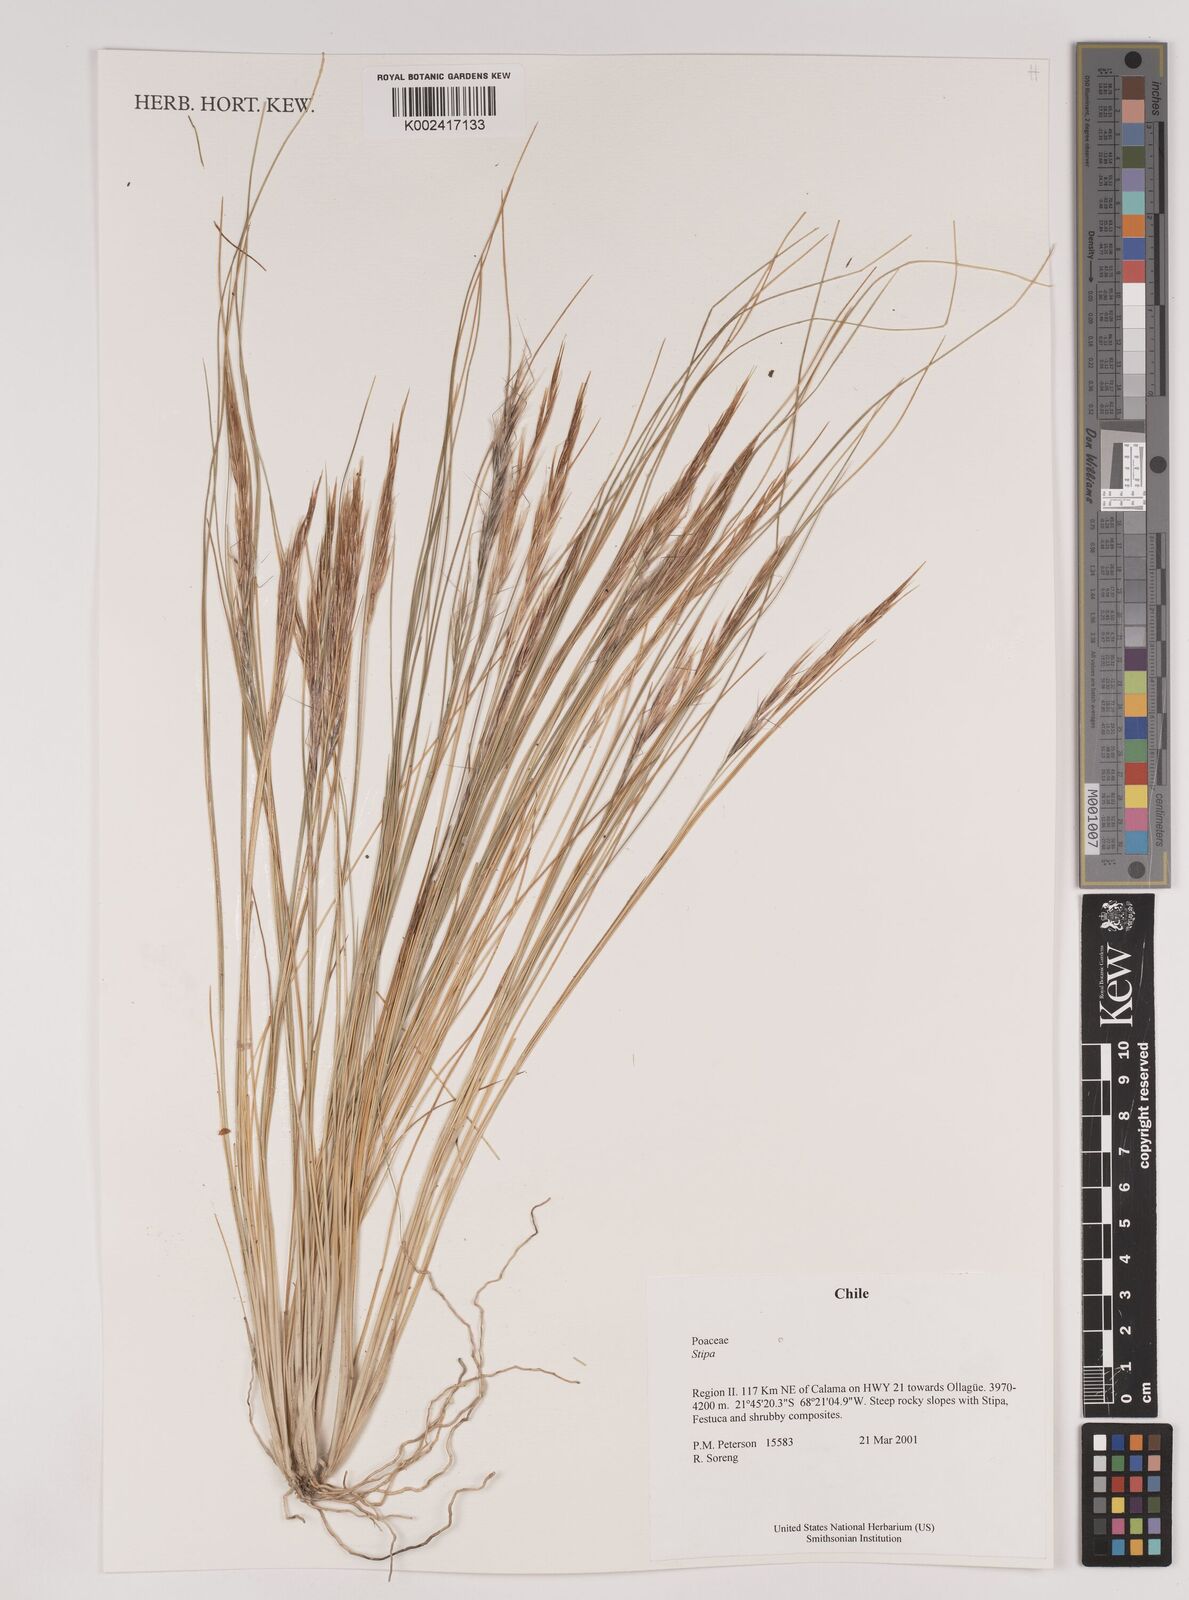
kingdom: Plantae
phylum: Tracheophyta
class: Liliopsida
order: Poales
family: Poaceae
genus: Stipa
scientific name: Stipa
